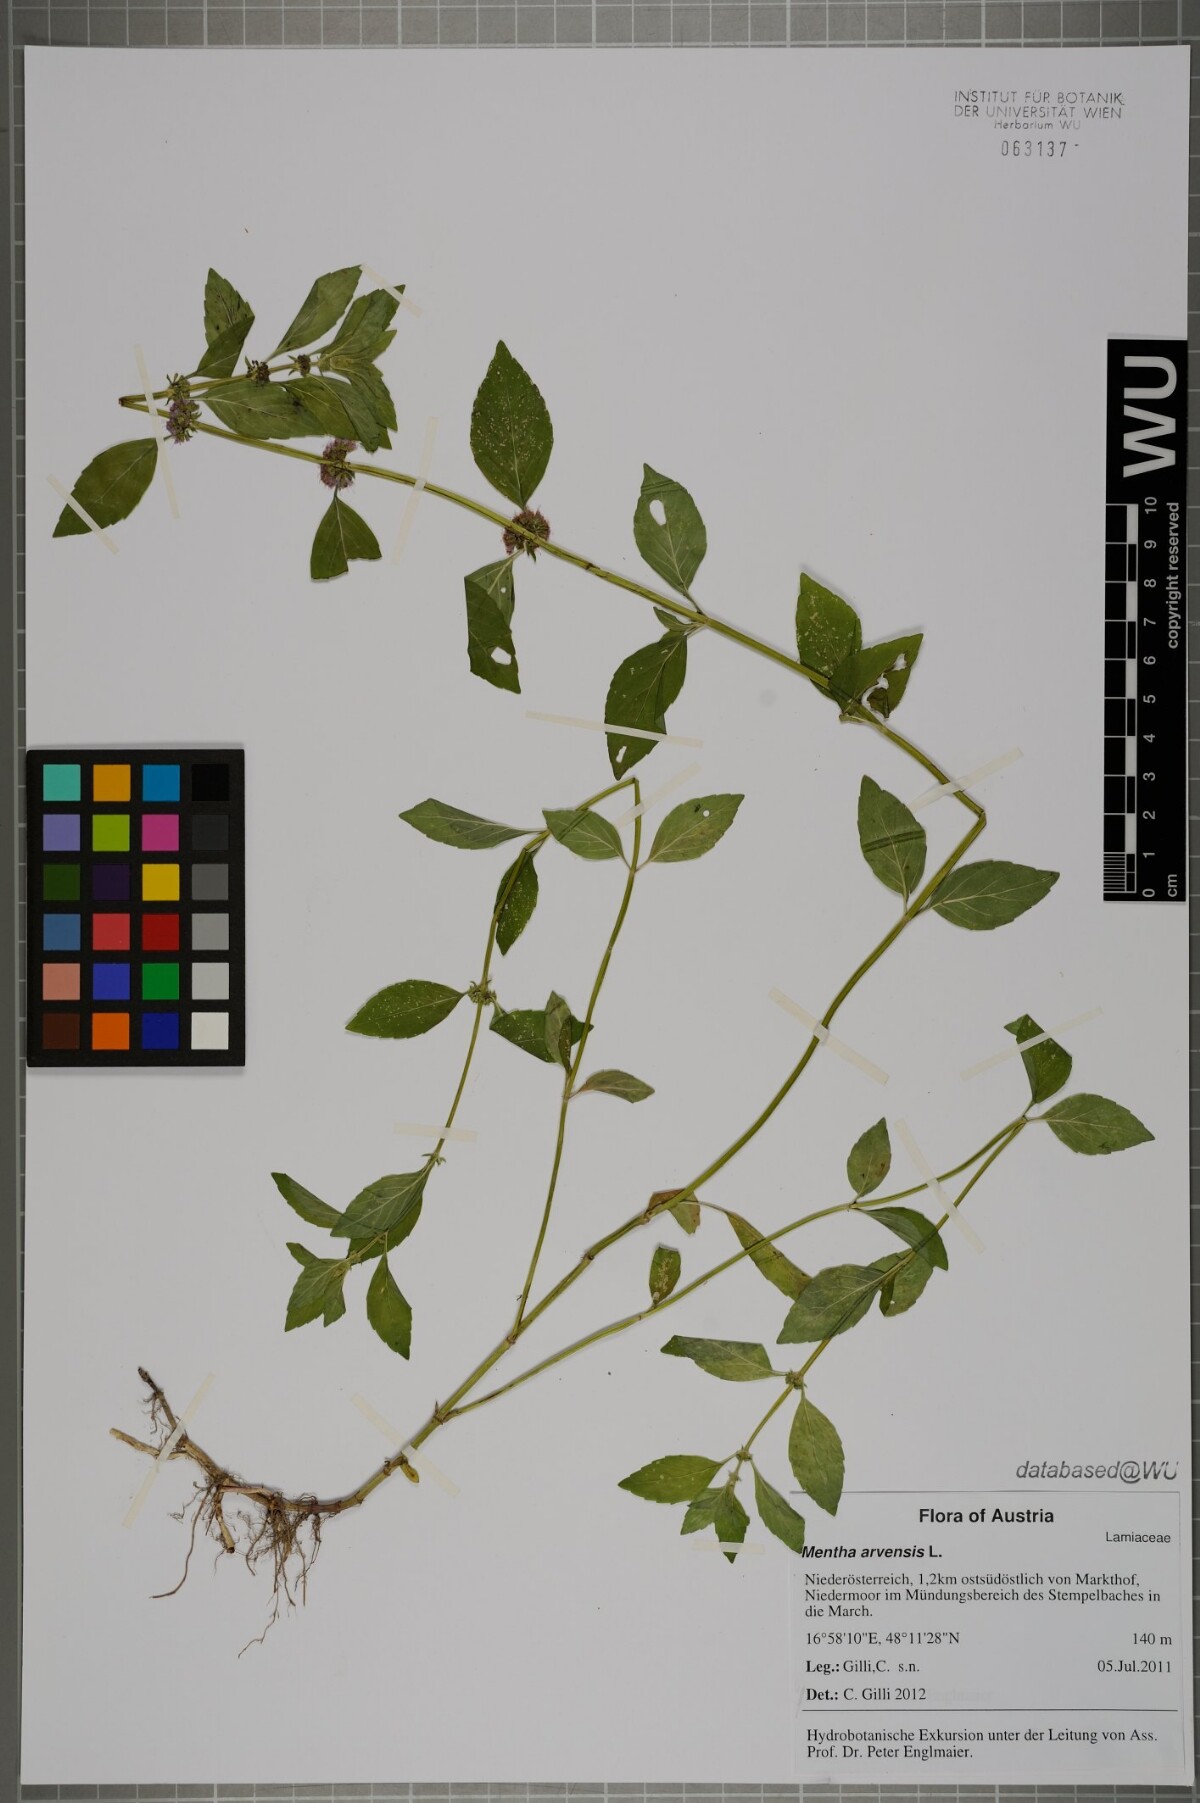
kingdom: Plantae
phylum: Tracheophyta
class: Magnoliopsida
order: Lamiales
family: Lamiaceae
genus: Mentha
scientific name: Mentha arvensis
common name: Corn mint
